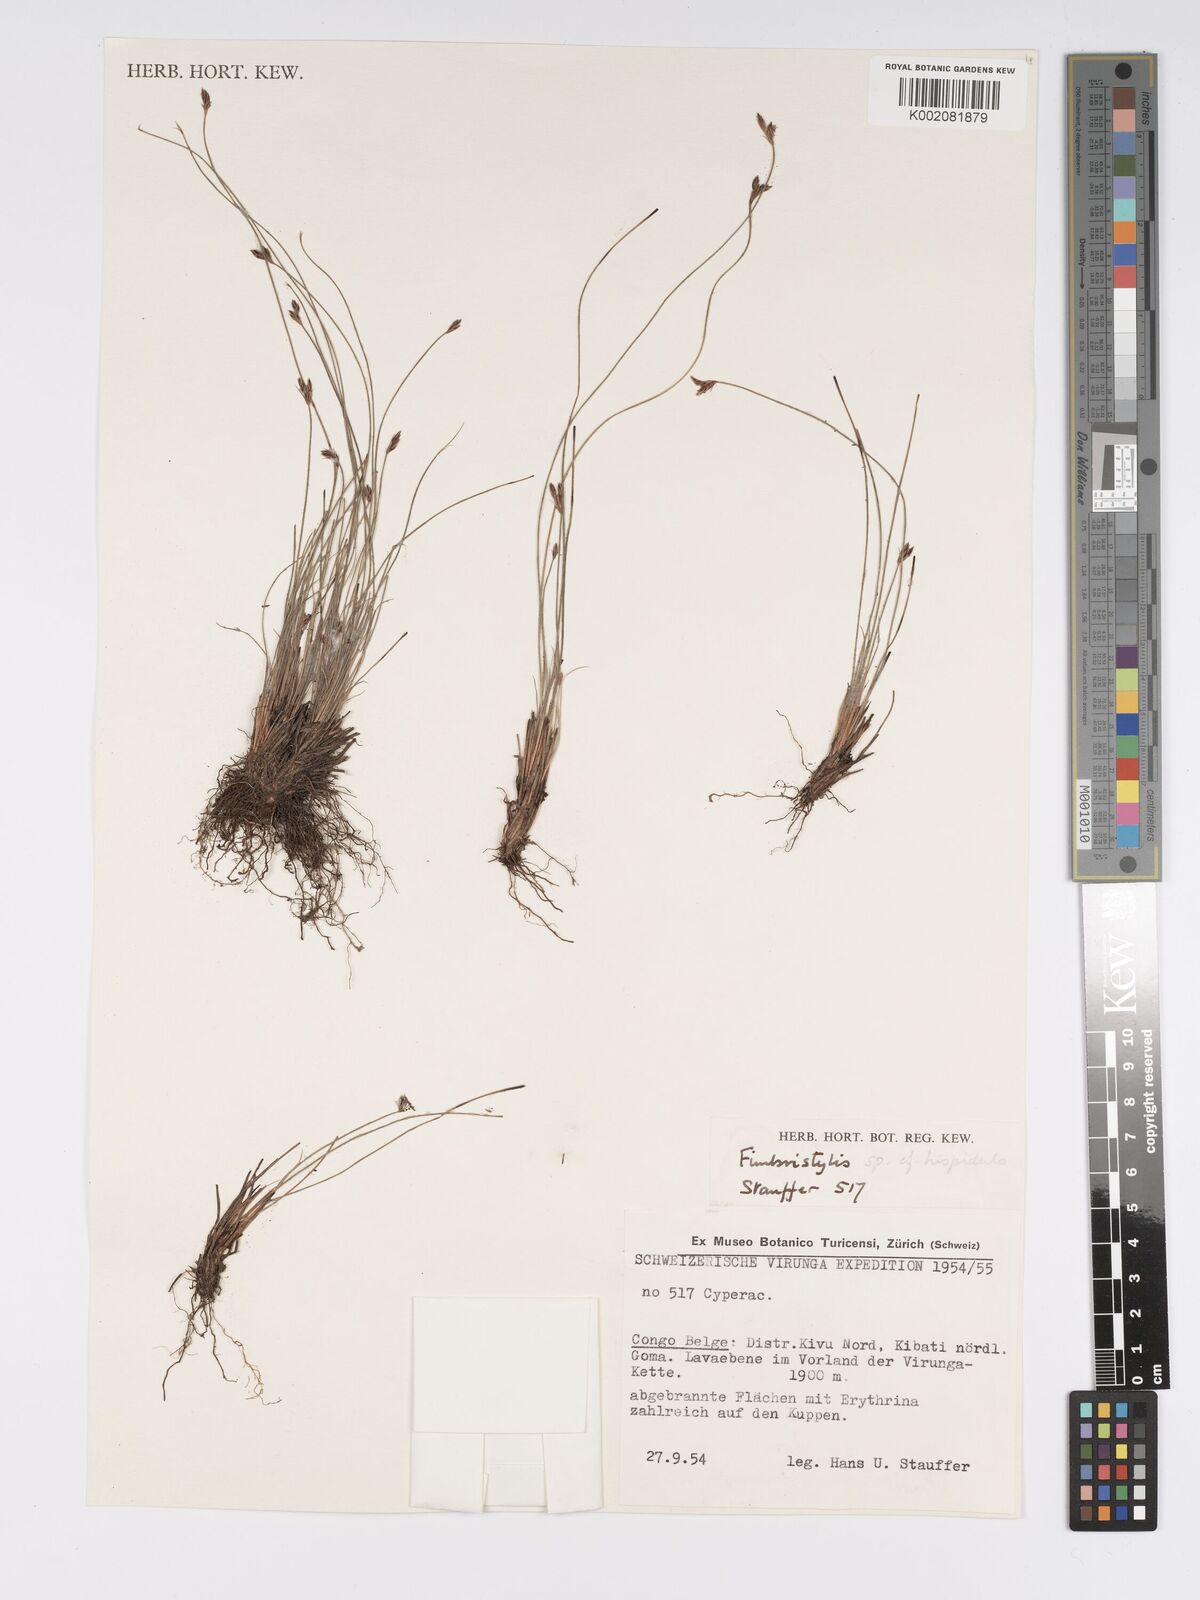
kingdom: Plantae
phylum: Tracheophyta
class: Liliopsida
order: Poales
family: Cyperaceae
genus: Bulbostylis
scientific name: Bulbostylis hispidula
